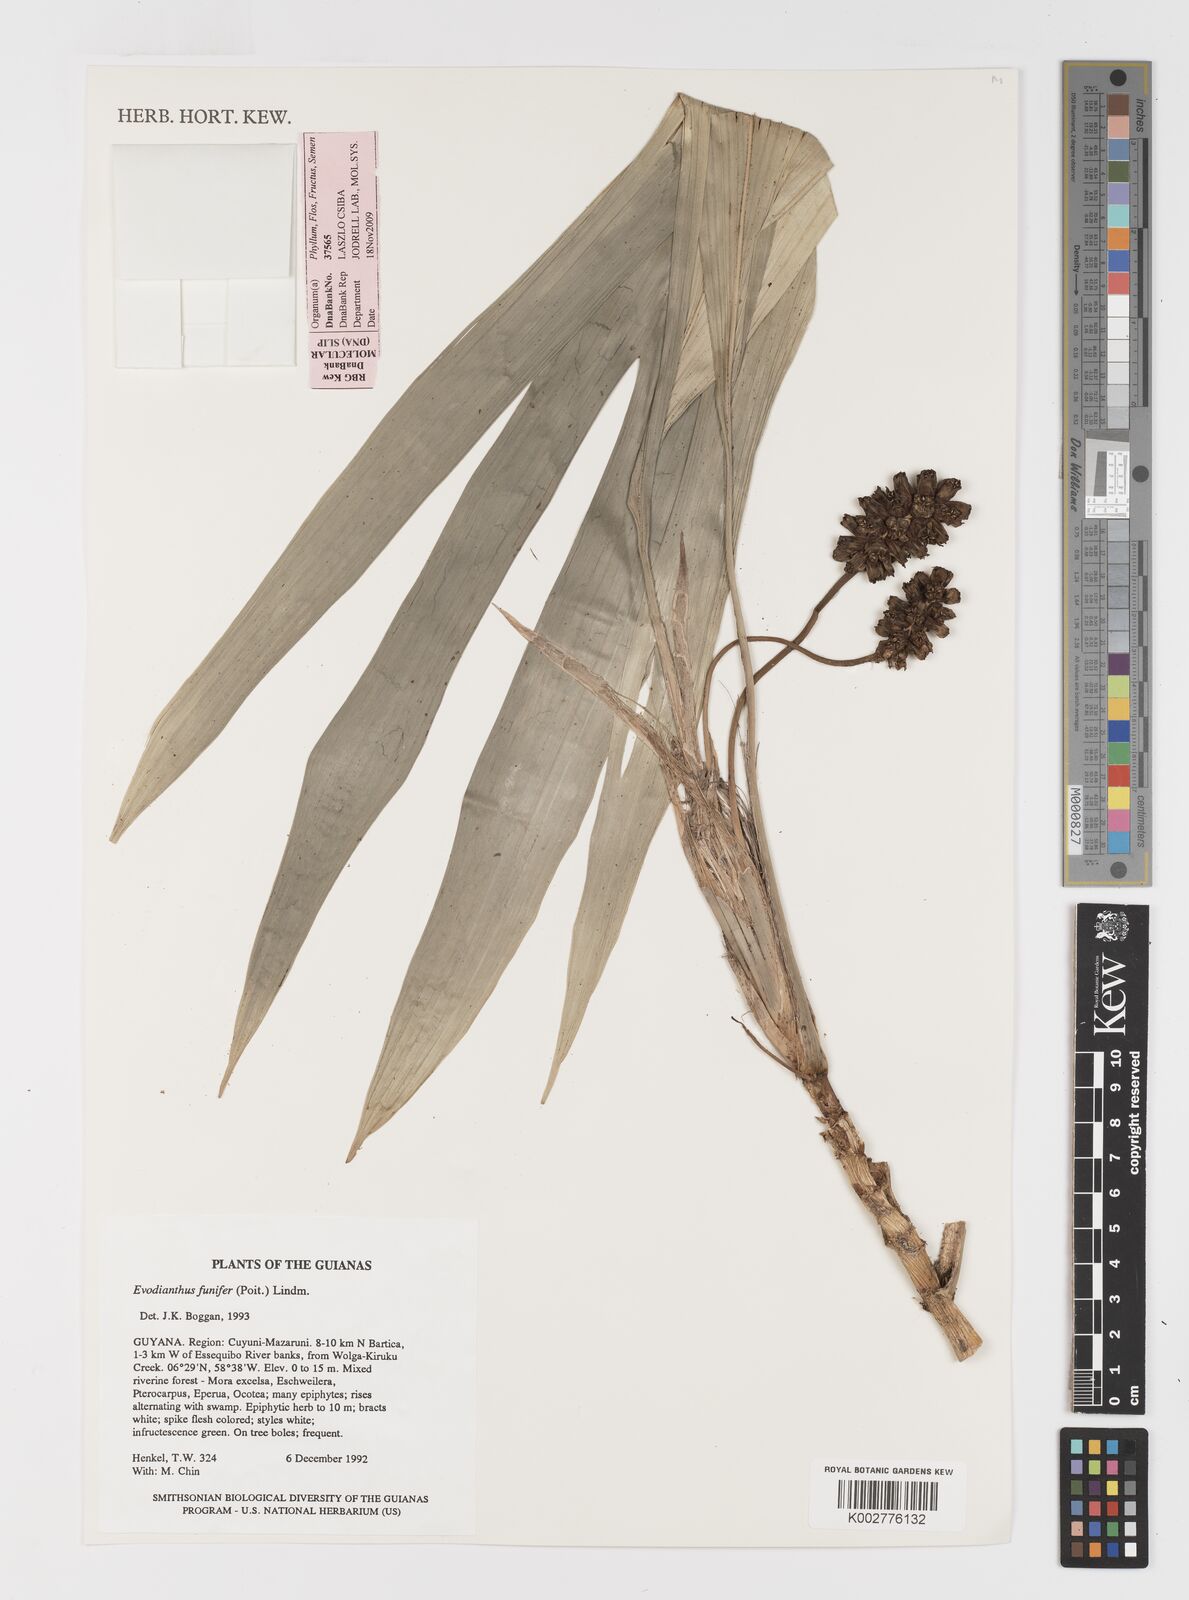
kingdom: Plantae
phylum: Tracheophyta
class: Liliopsida
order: Pandanales
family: Cyclanthaceae
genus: Evodianthus
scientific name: Evodianthus funifer
